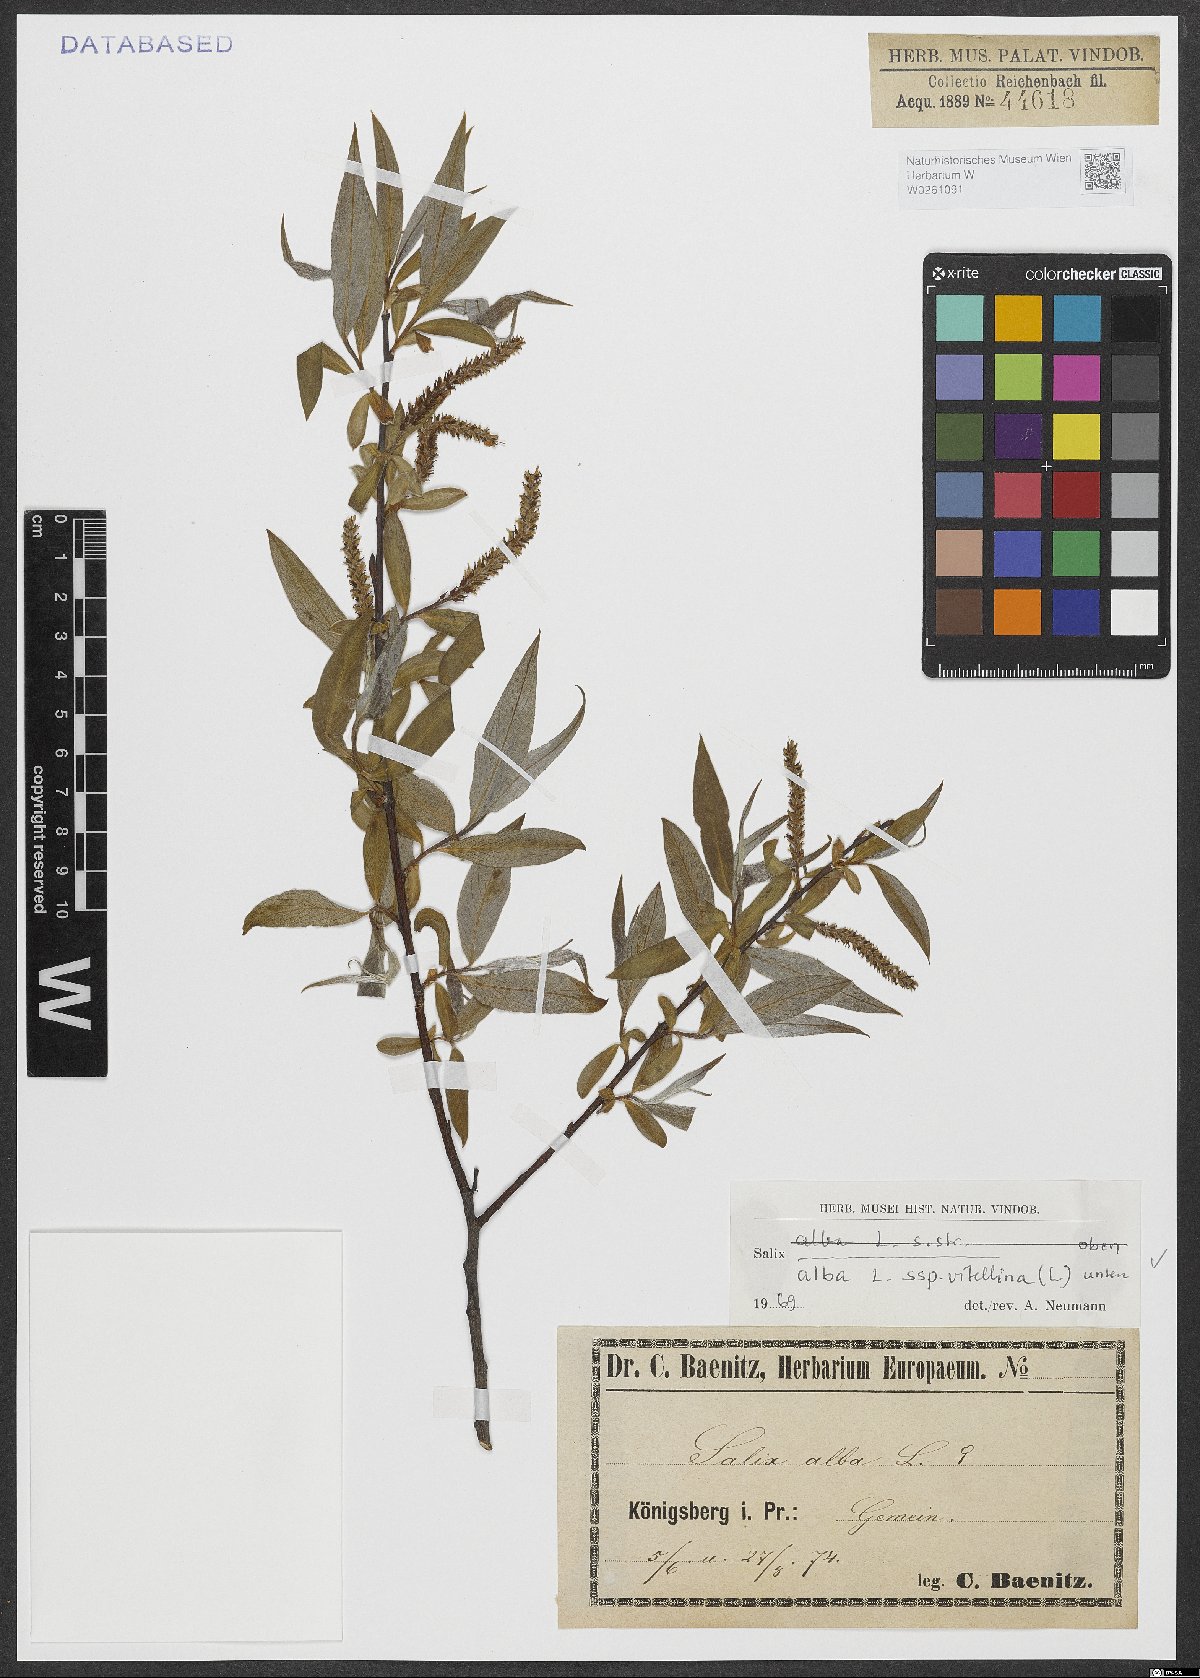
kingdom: Plantae
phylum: Tracheophyta
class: Magnoliopsida
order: Malpighiales
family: Salicaceae
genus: Salix
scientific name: Salix alba
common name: White willow
